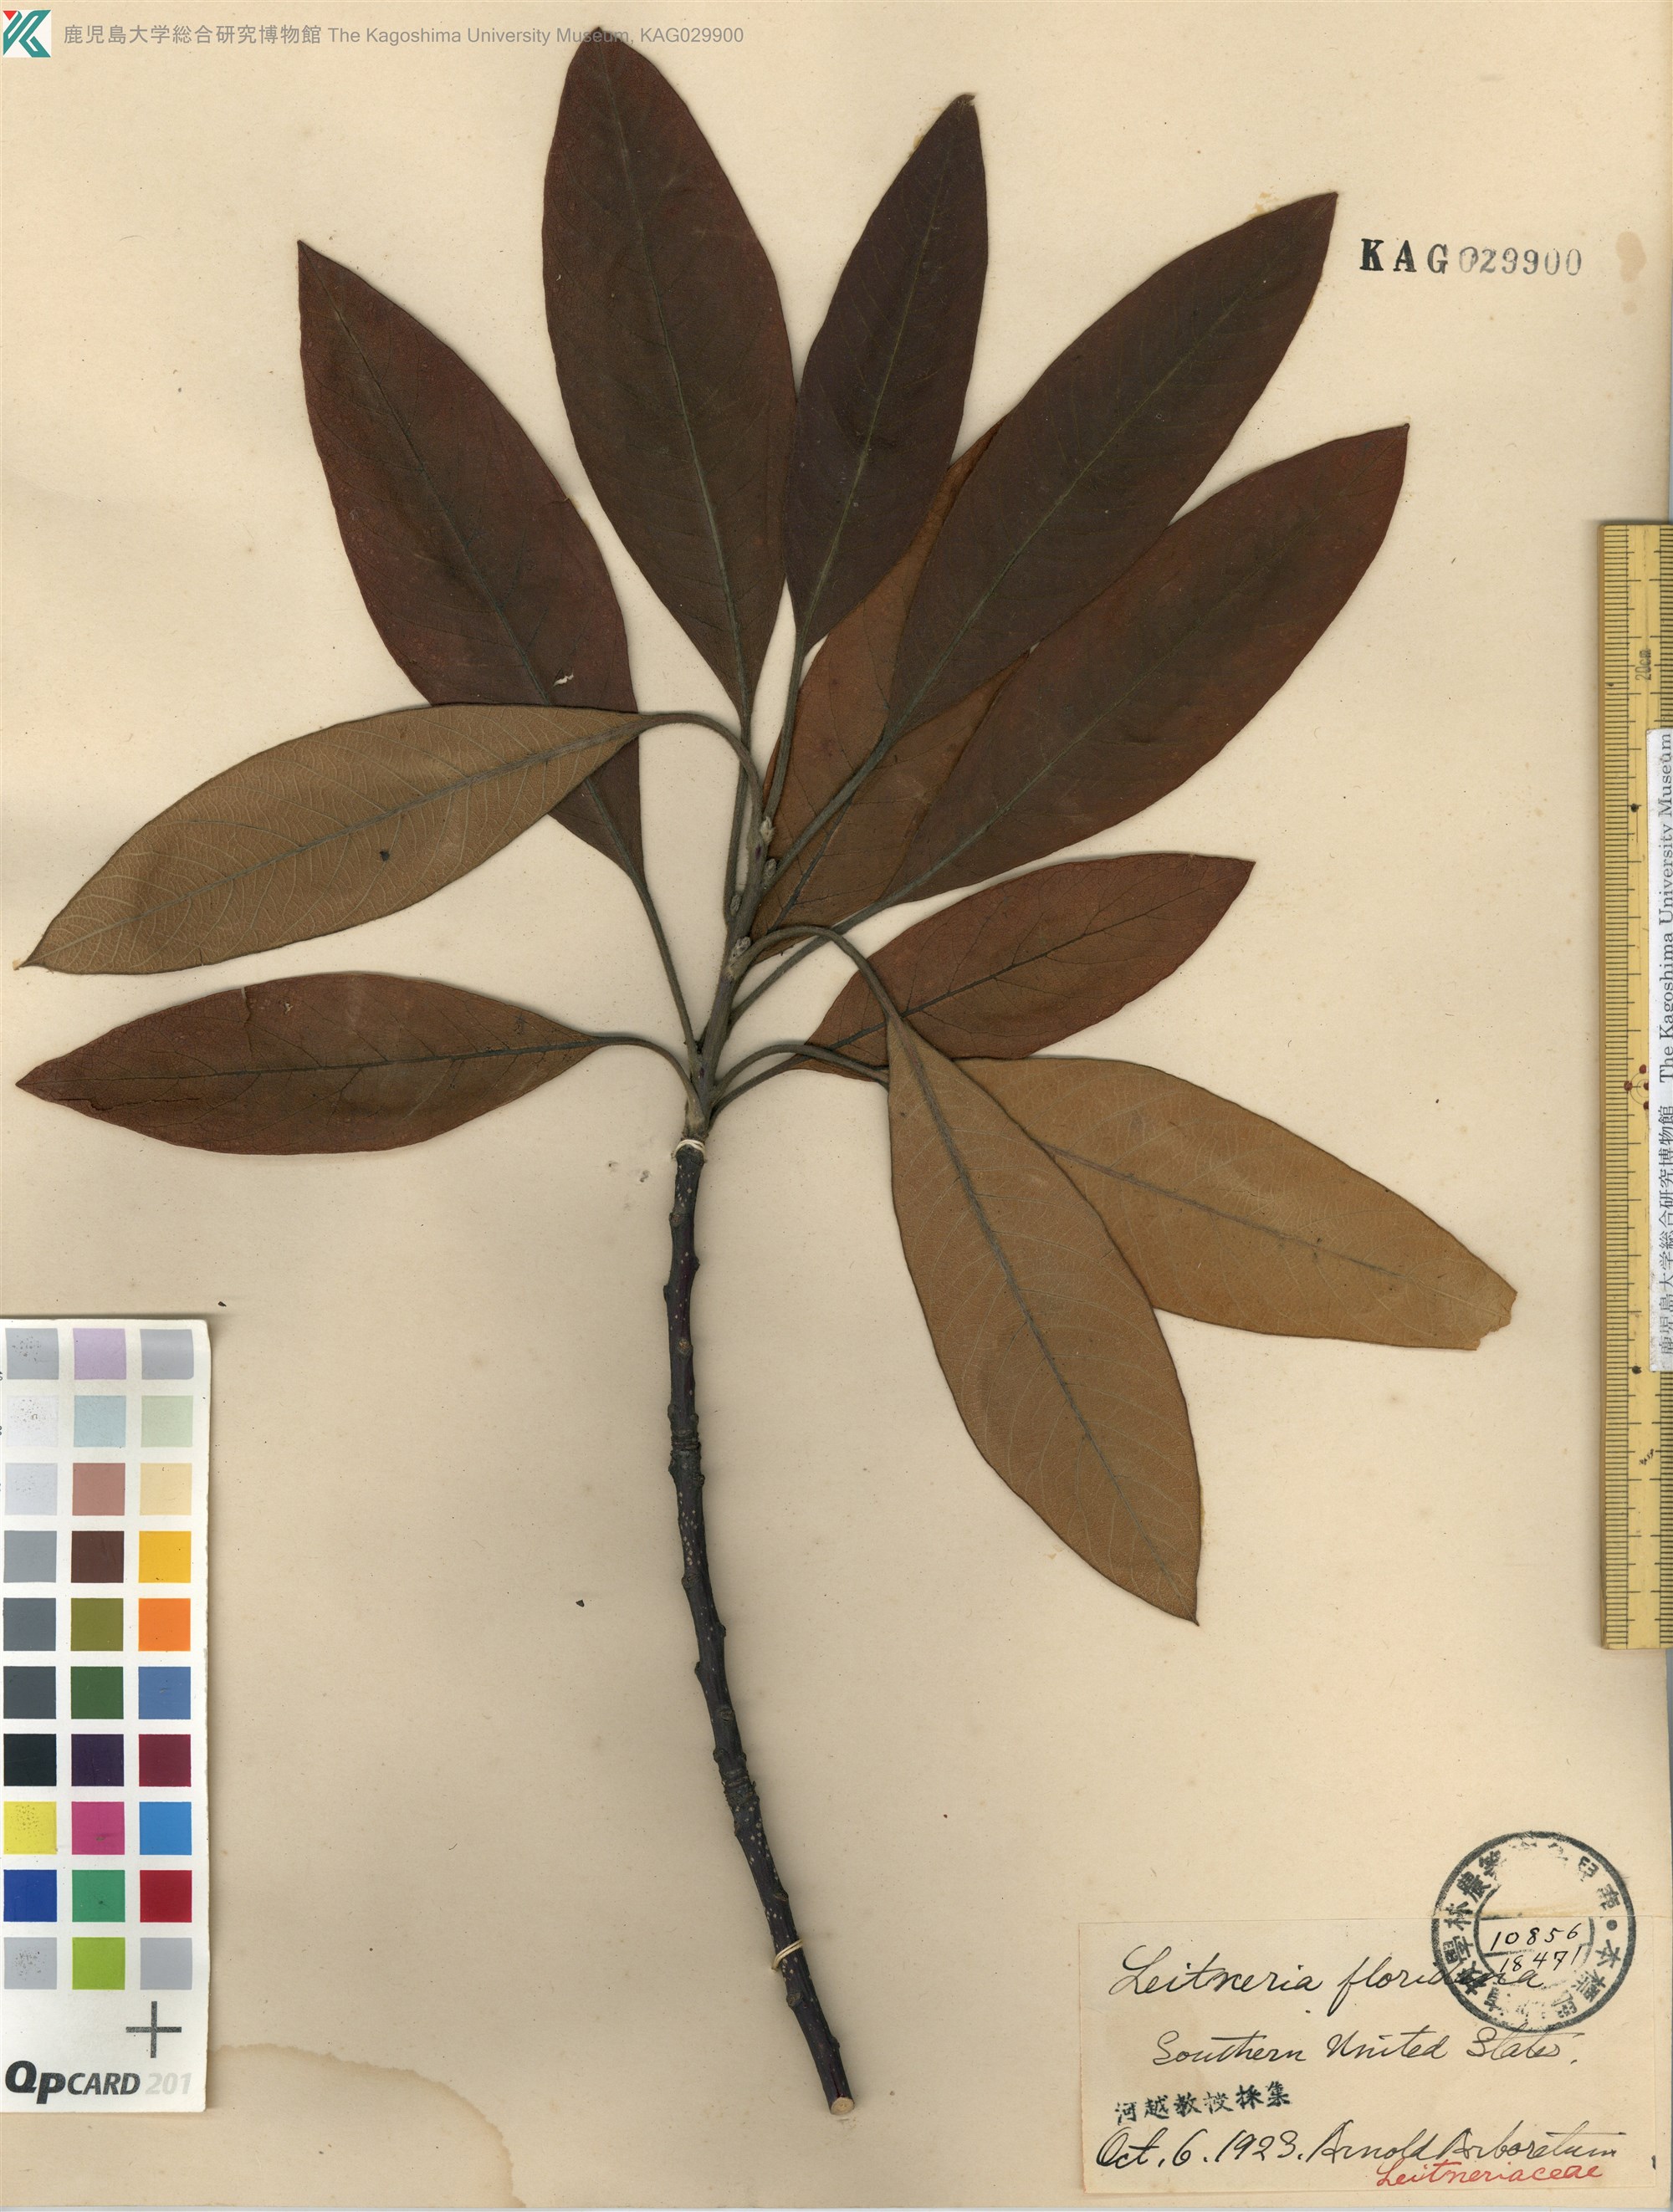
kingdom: Plantae
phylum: Tracheophyta
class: Magnoliopsida
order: Sapindales
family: Simaroubaceae
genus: Leitneria
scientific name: Leitneria floridana
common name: Corkwood
